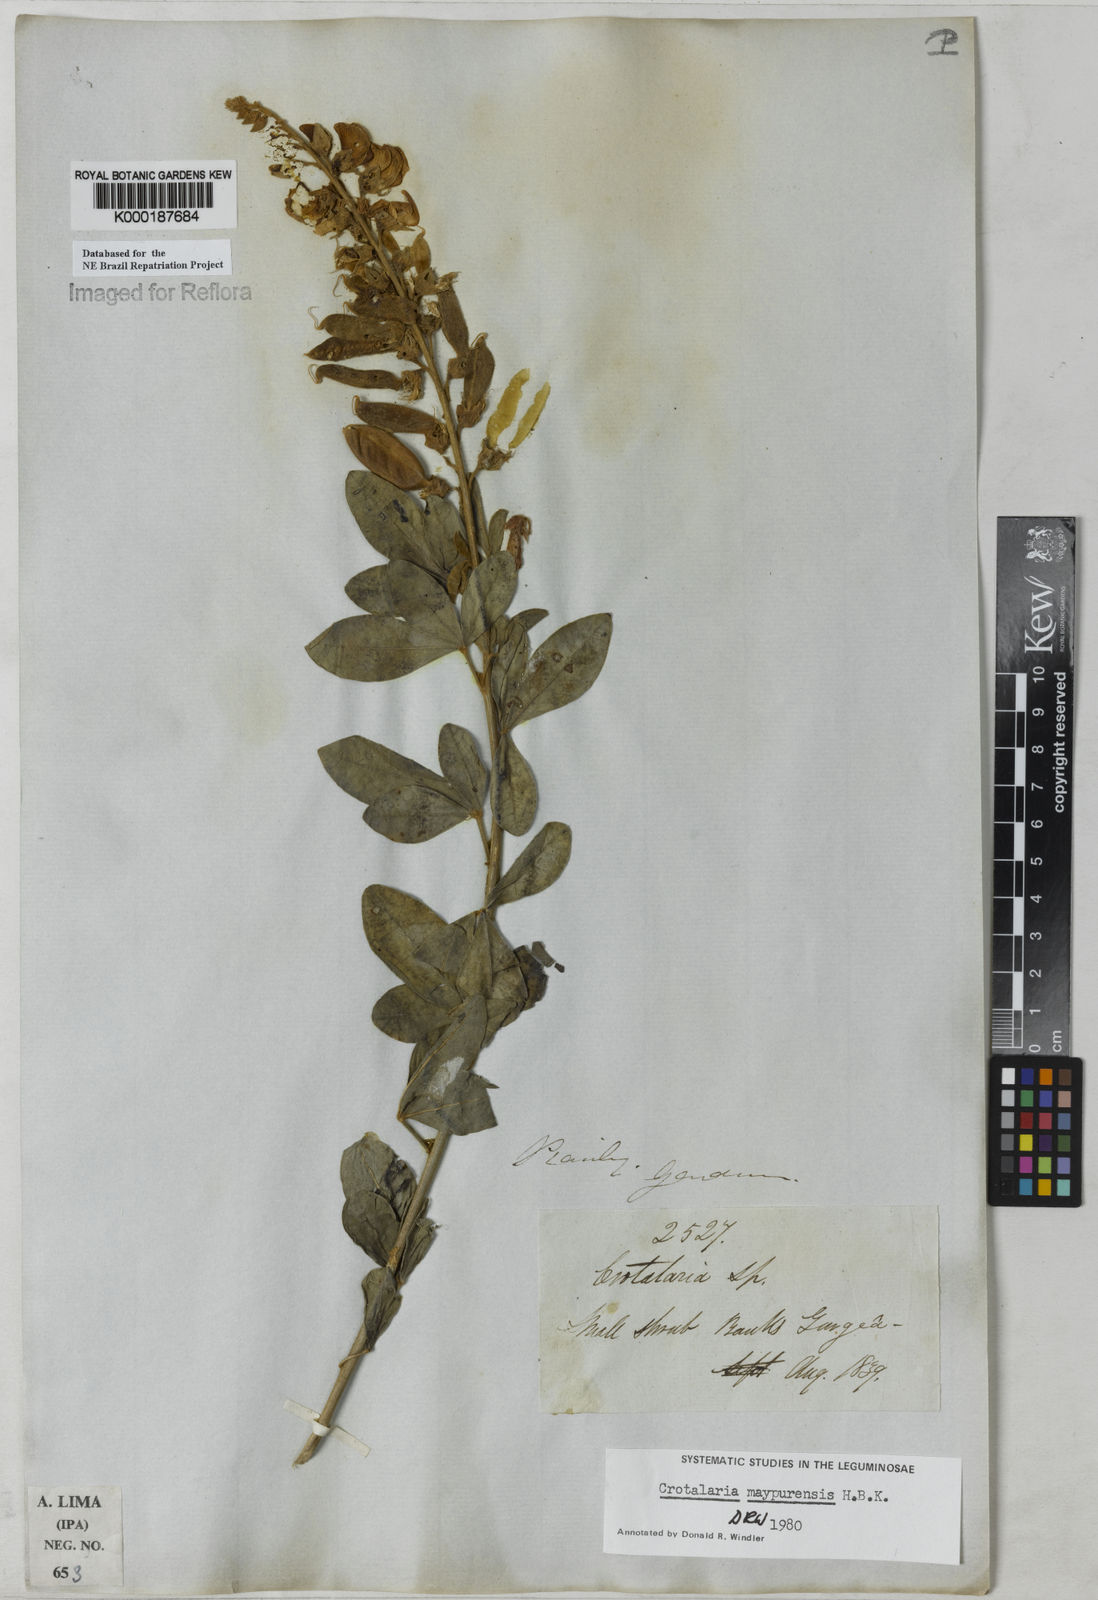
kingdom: Plantae
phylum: Tracheophyta
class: Magnoliopsida
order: Fabales
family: Fabaceae
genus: Crotalaria
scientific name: Crotalaria maypurensis
